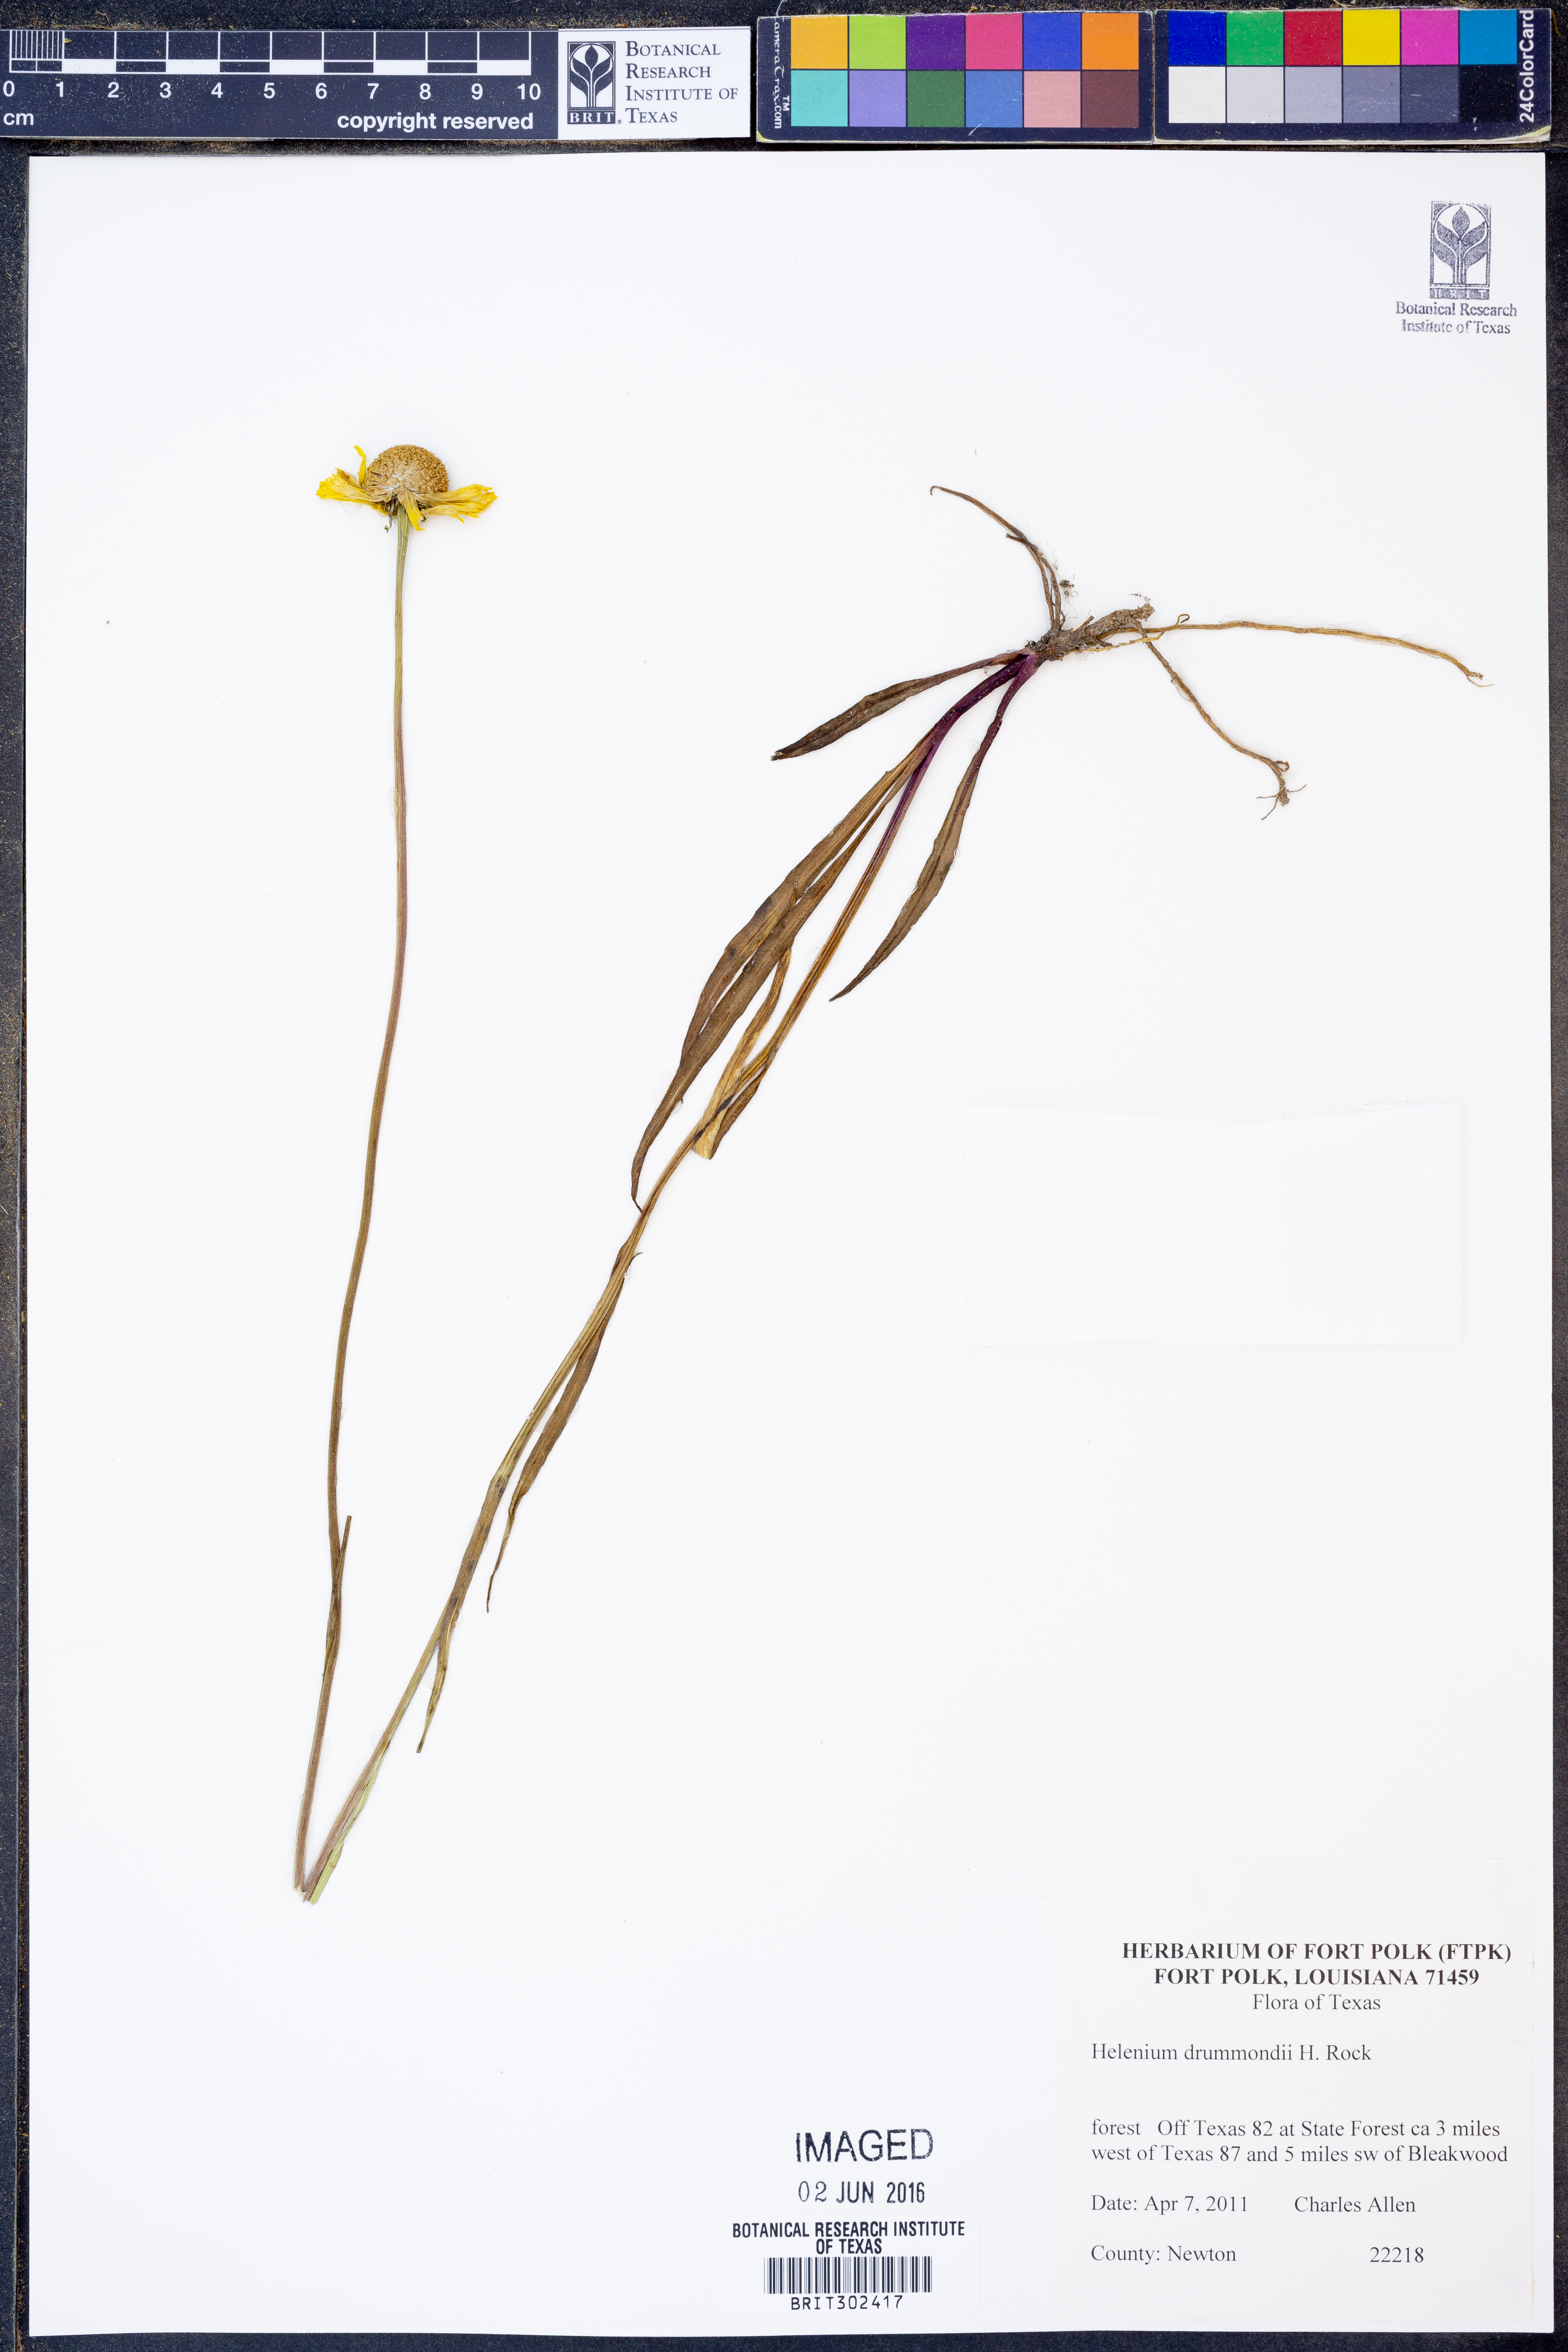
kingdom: Plantae
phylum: Tracheophyta
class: Magnoliopsida
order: Asterales
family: Asteraceae
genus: Helenium
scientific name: Helenium drummondii
